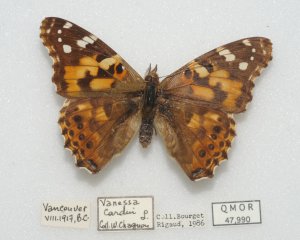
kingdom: Animalia
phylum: Arthropoda
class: Insecta
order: Lepidoptera
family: Nymphalidae
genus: Vanessa
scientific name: Vanessa cardui
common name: Painted Lady
